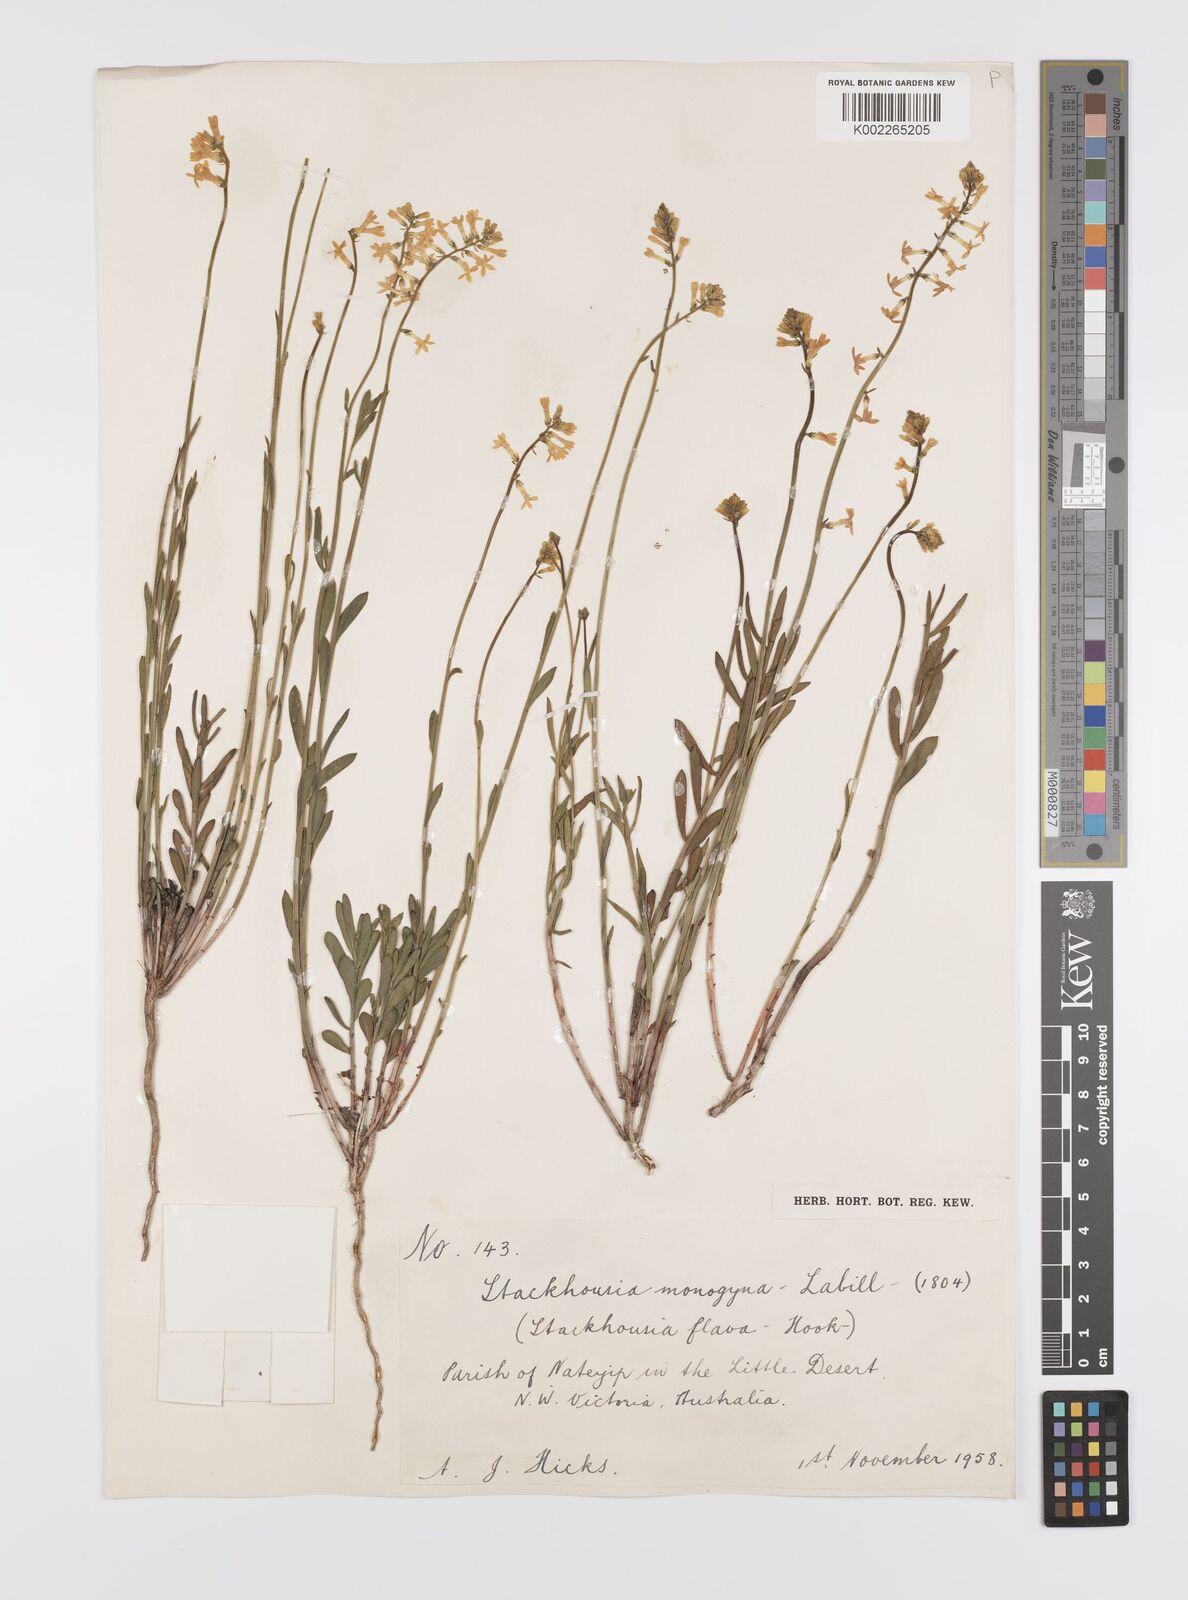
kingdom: Plantae
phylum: Tracheophyta
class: Magnoliopsida
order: Celastrales
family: Celastraceae
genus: Stackhousia
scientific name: Stackhousia monogyna
